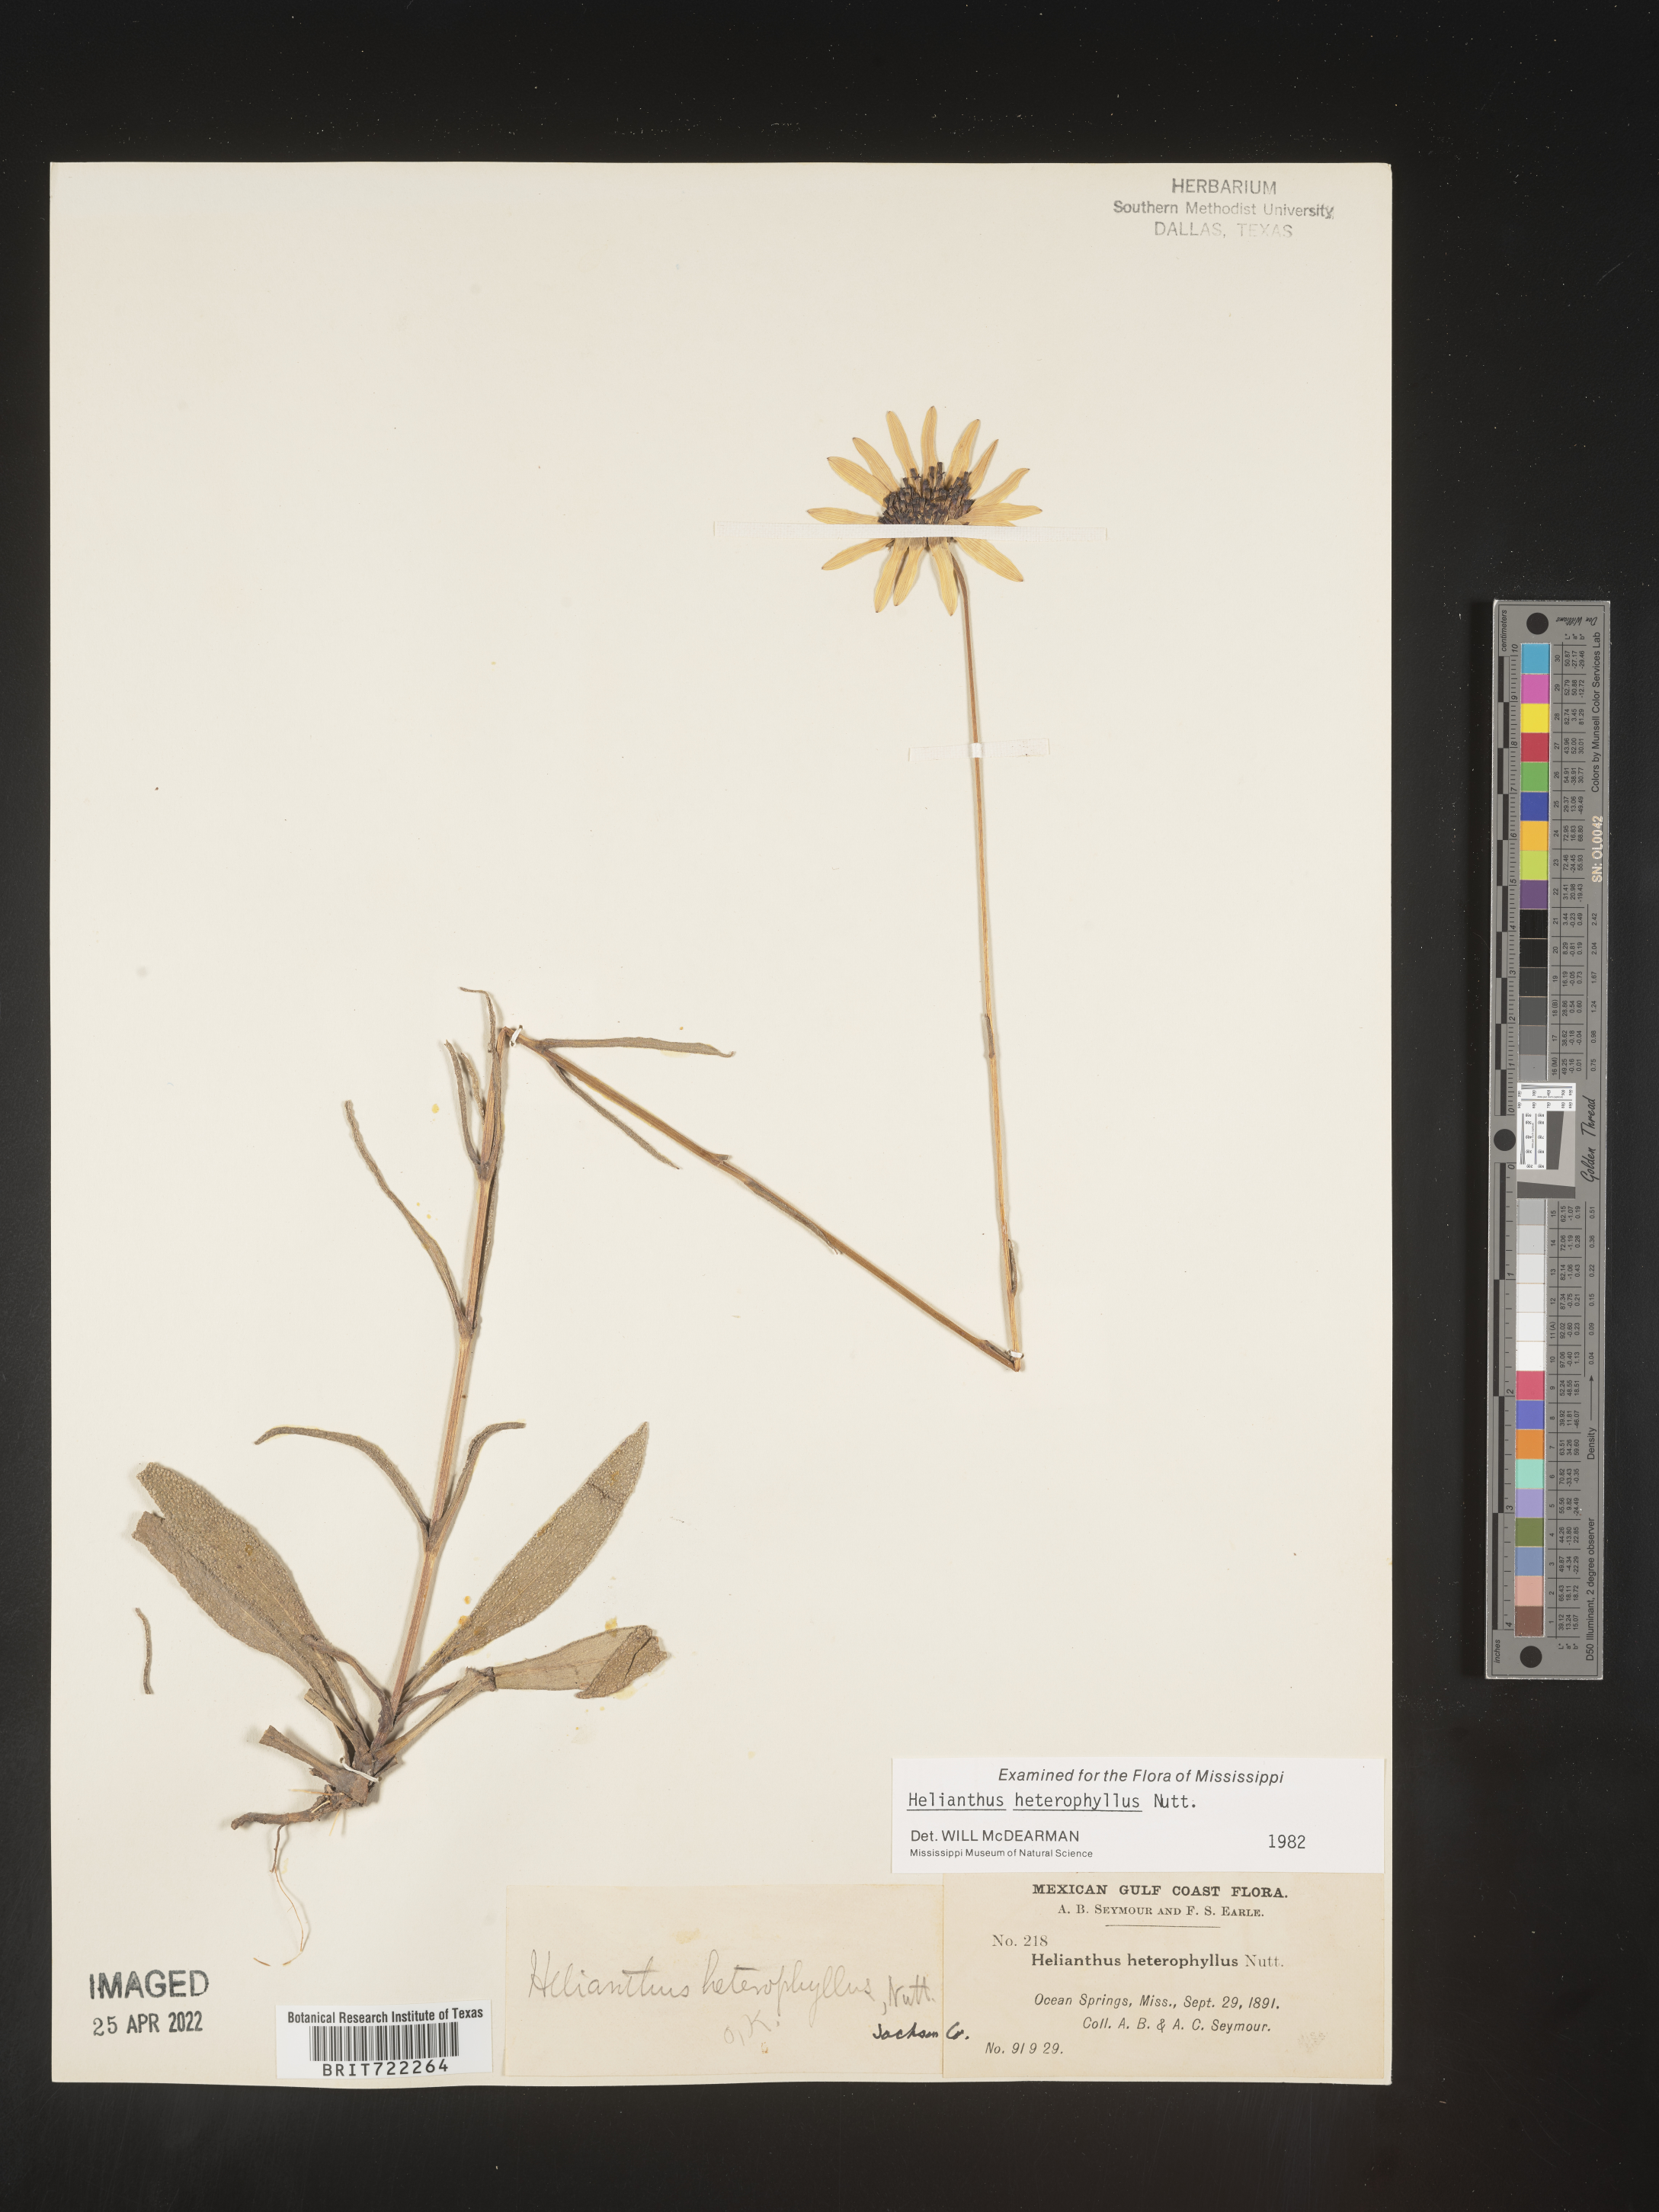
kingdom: Plantae
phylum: Tracheophyta
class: Magnoliopsida
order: Asterales
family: Asteraceae
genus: Helianthus
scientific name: Helianthus heterophyllus
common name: Wetland sunflower
